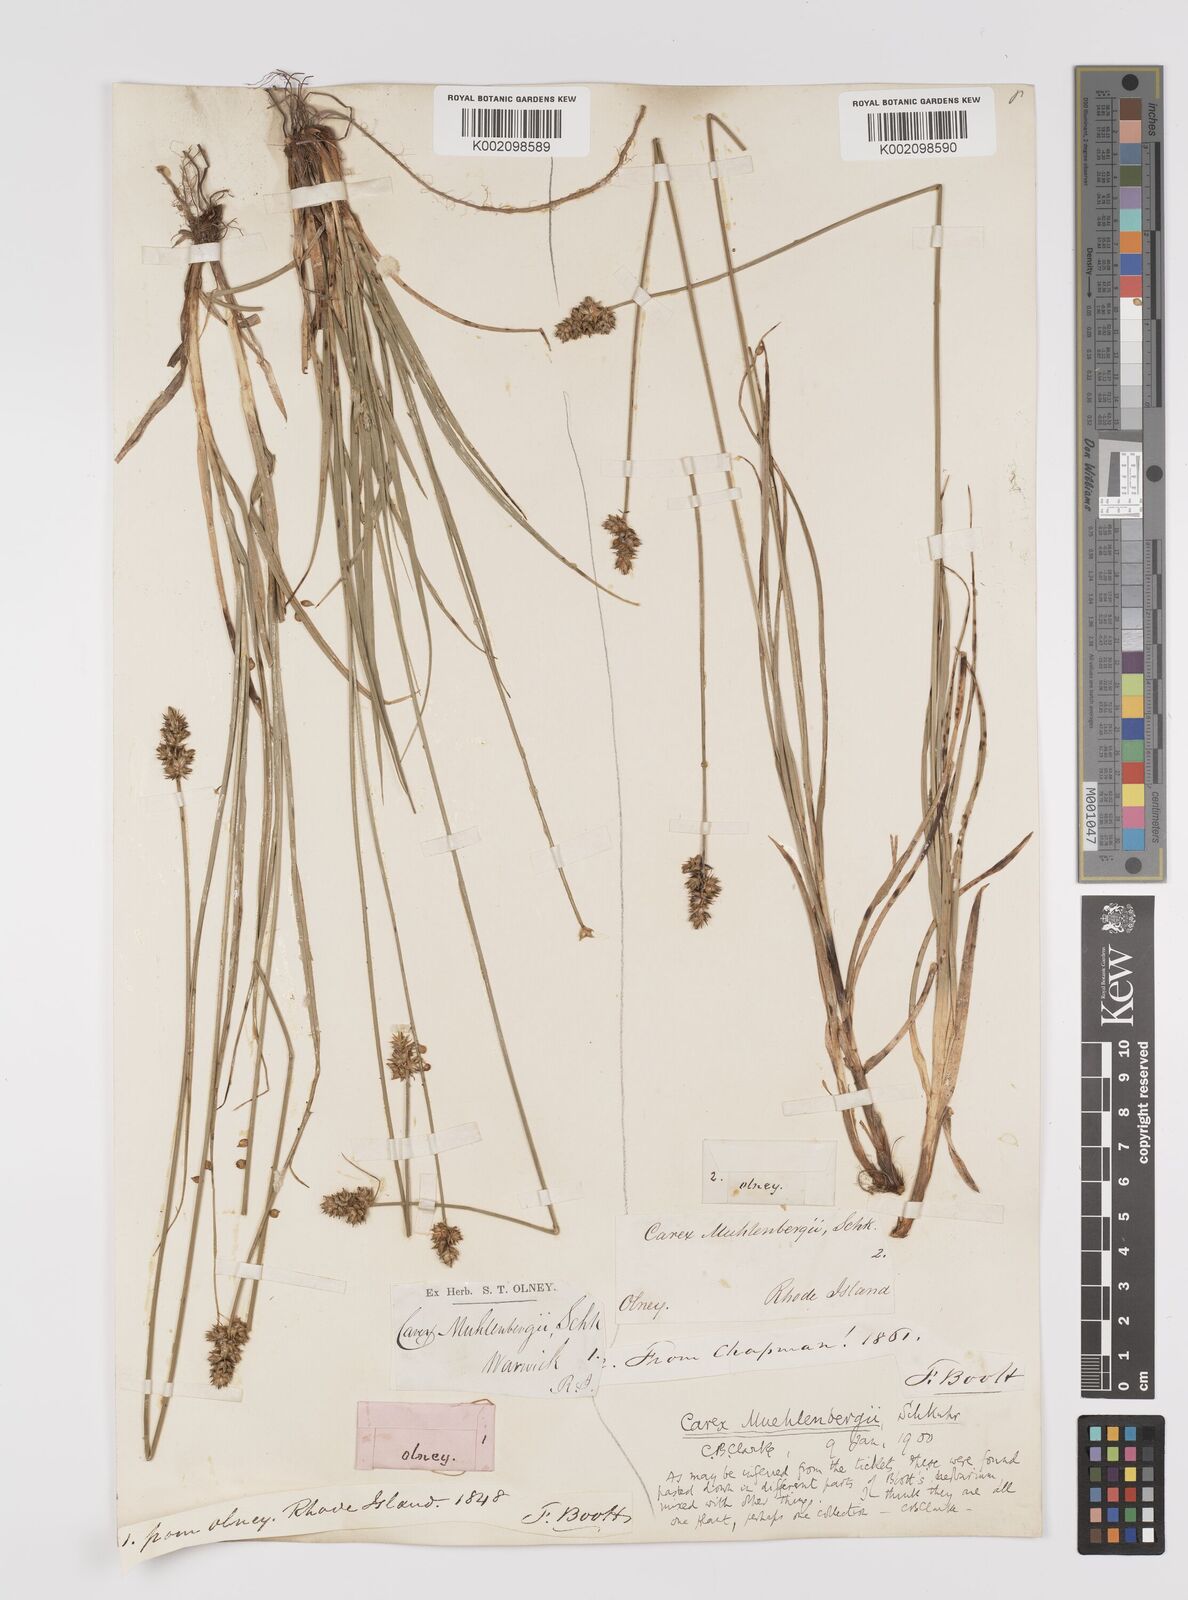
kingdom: Plantae
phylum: Tracheophyta
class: Liliopsida
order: Poales
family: Cyperaceae
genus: Carex
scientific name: Carex vulpinoidea
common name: American fox-sedge
